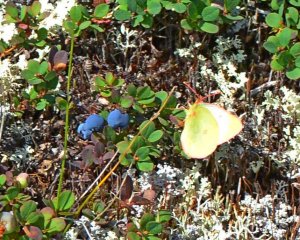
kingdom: Animalia
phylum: Arthropoda
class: Insecta
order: Lepidoptera
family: Pieridae
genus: Colias
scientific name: Colias pelidne
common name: Pelidne Sulphur
